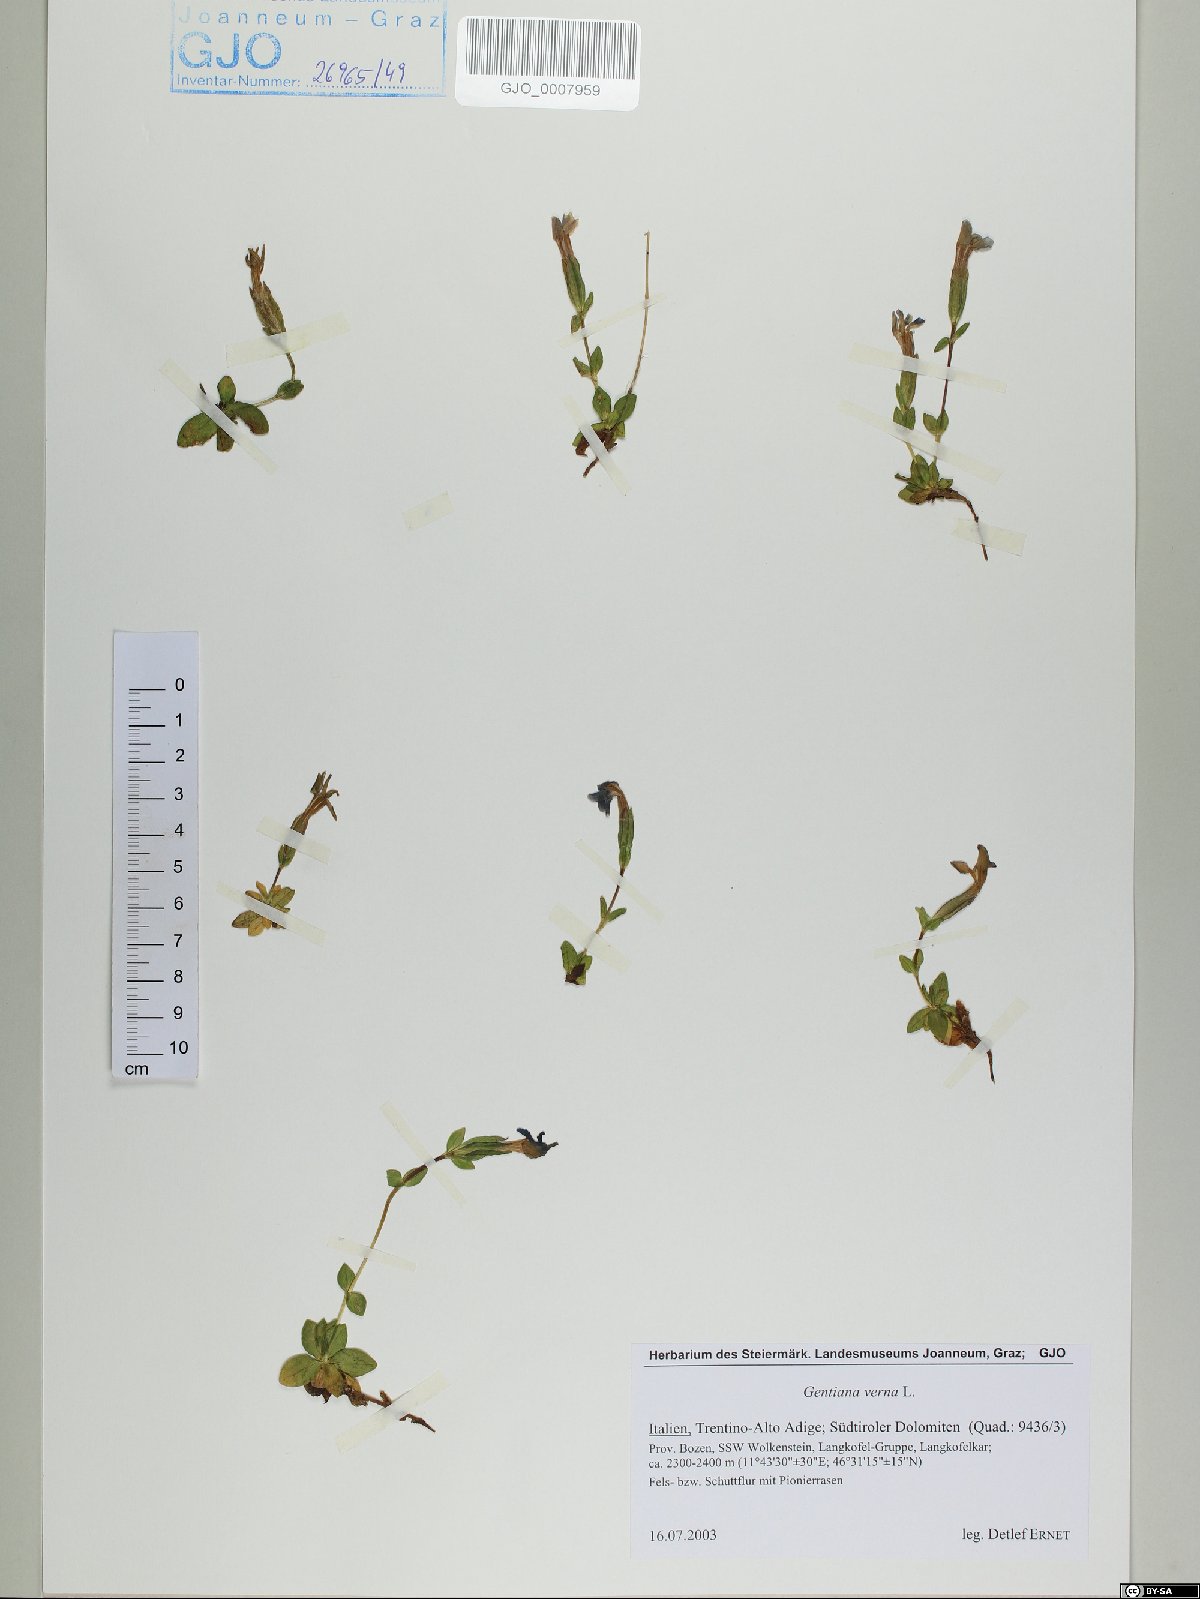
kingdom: Plantae
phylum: Tracheophyta
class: Magnoliopsida
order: Gentianales
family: Gentianaceae
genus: Gentiana
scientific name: Gentiana verna
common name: Spring gentian
